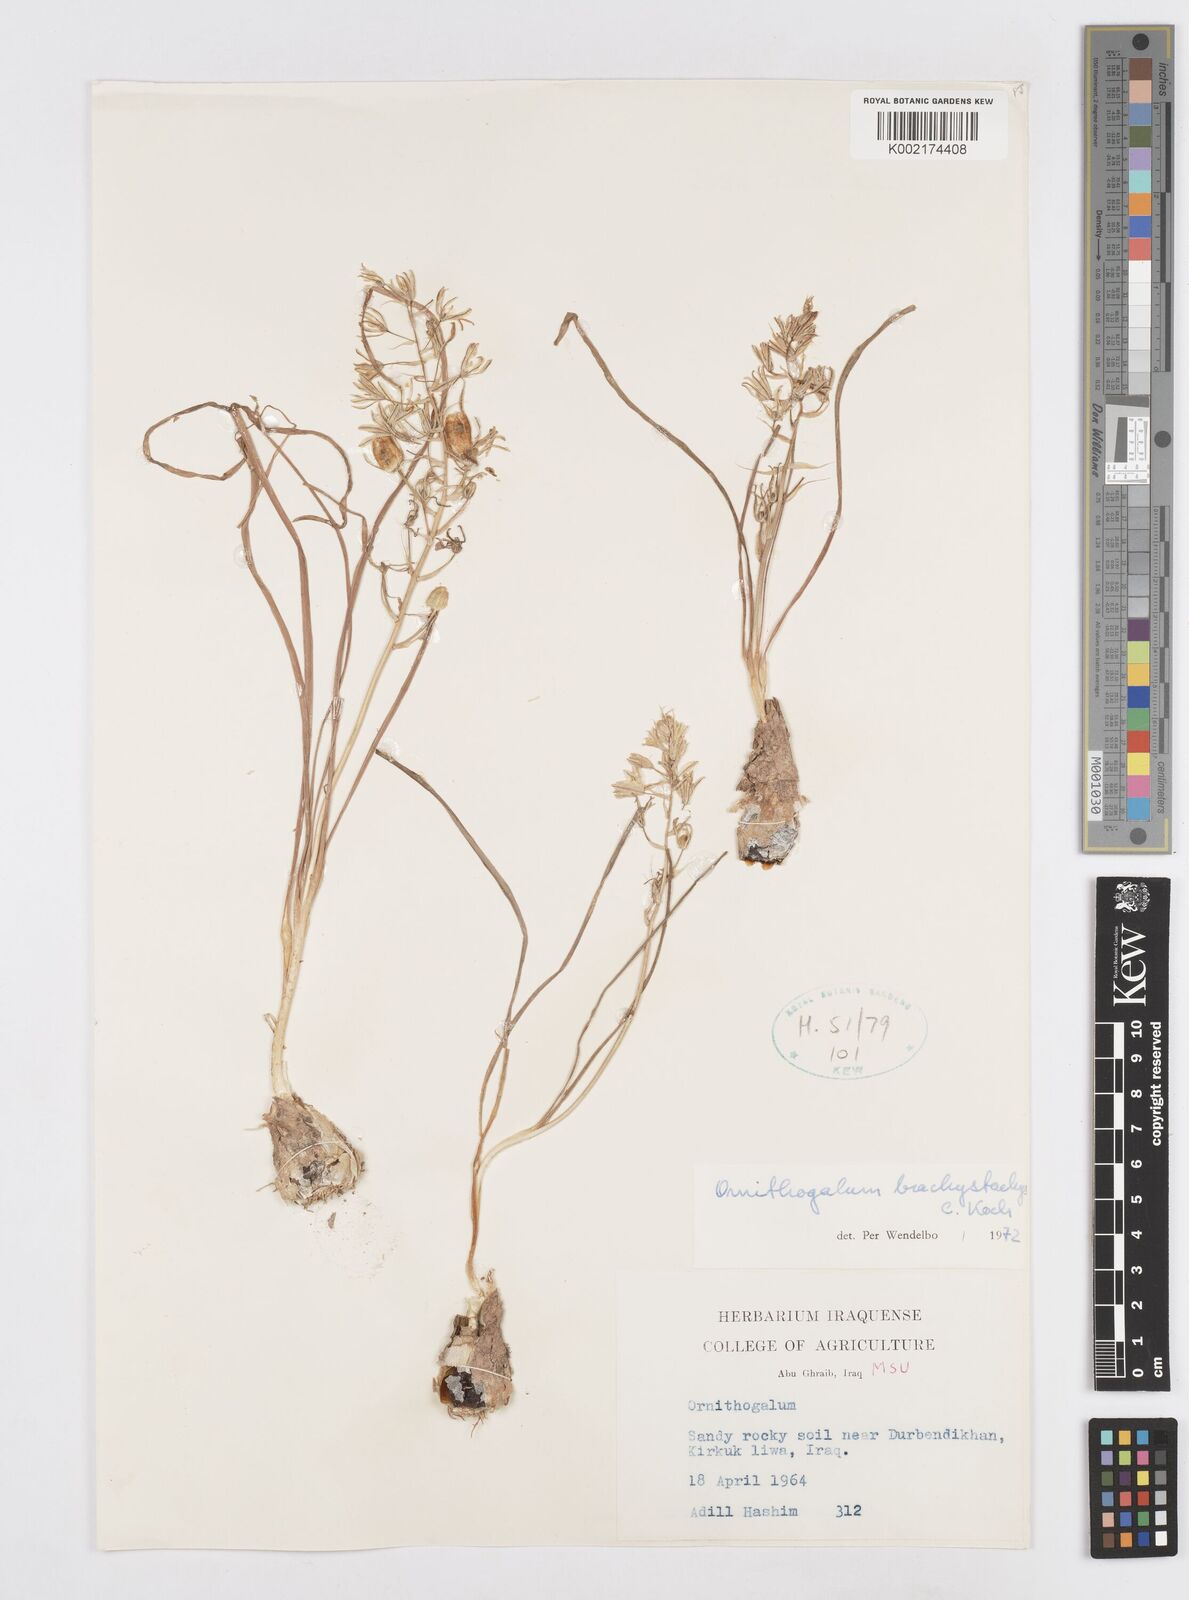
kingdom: Plantae
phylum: Tracheophyta
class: Liliopsida
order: Asparagales
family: Asparagaceae
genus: Ornithogalum
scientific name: Ornithogalum narbonense
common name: Bath-asparagus
